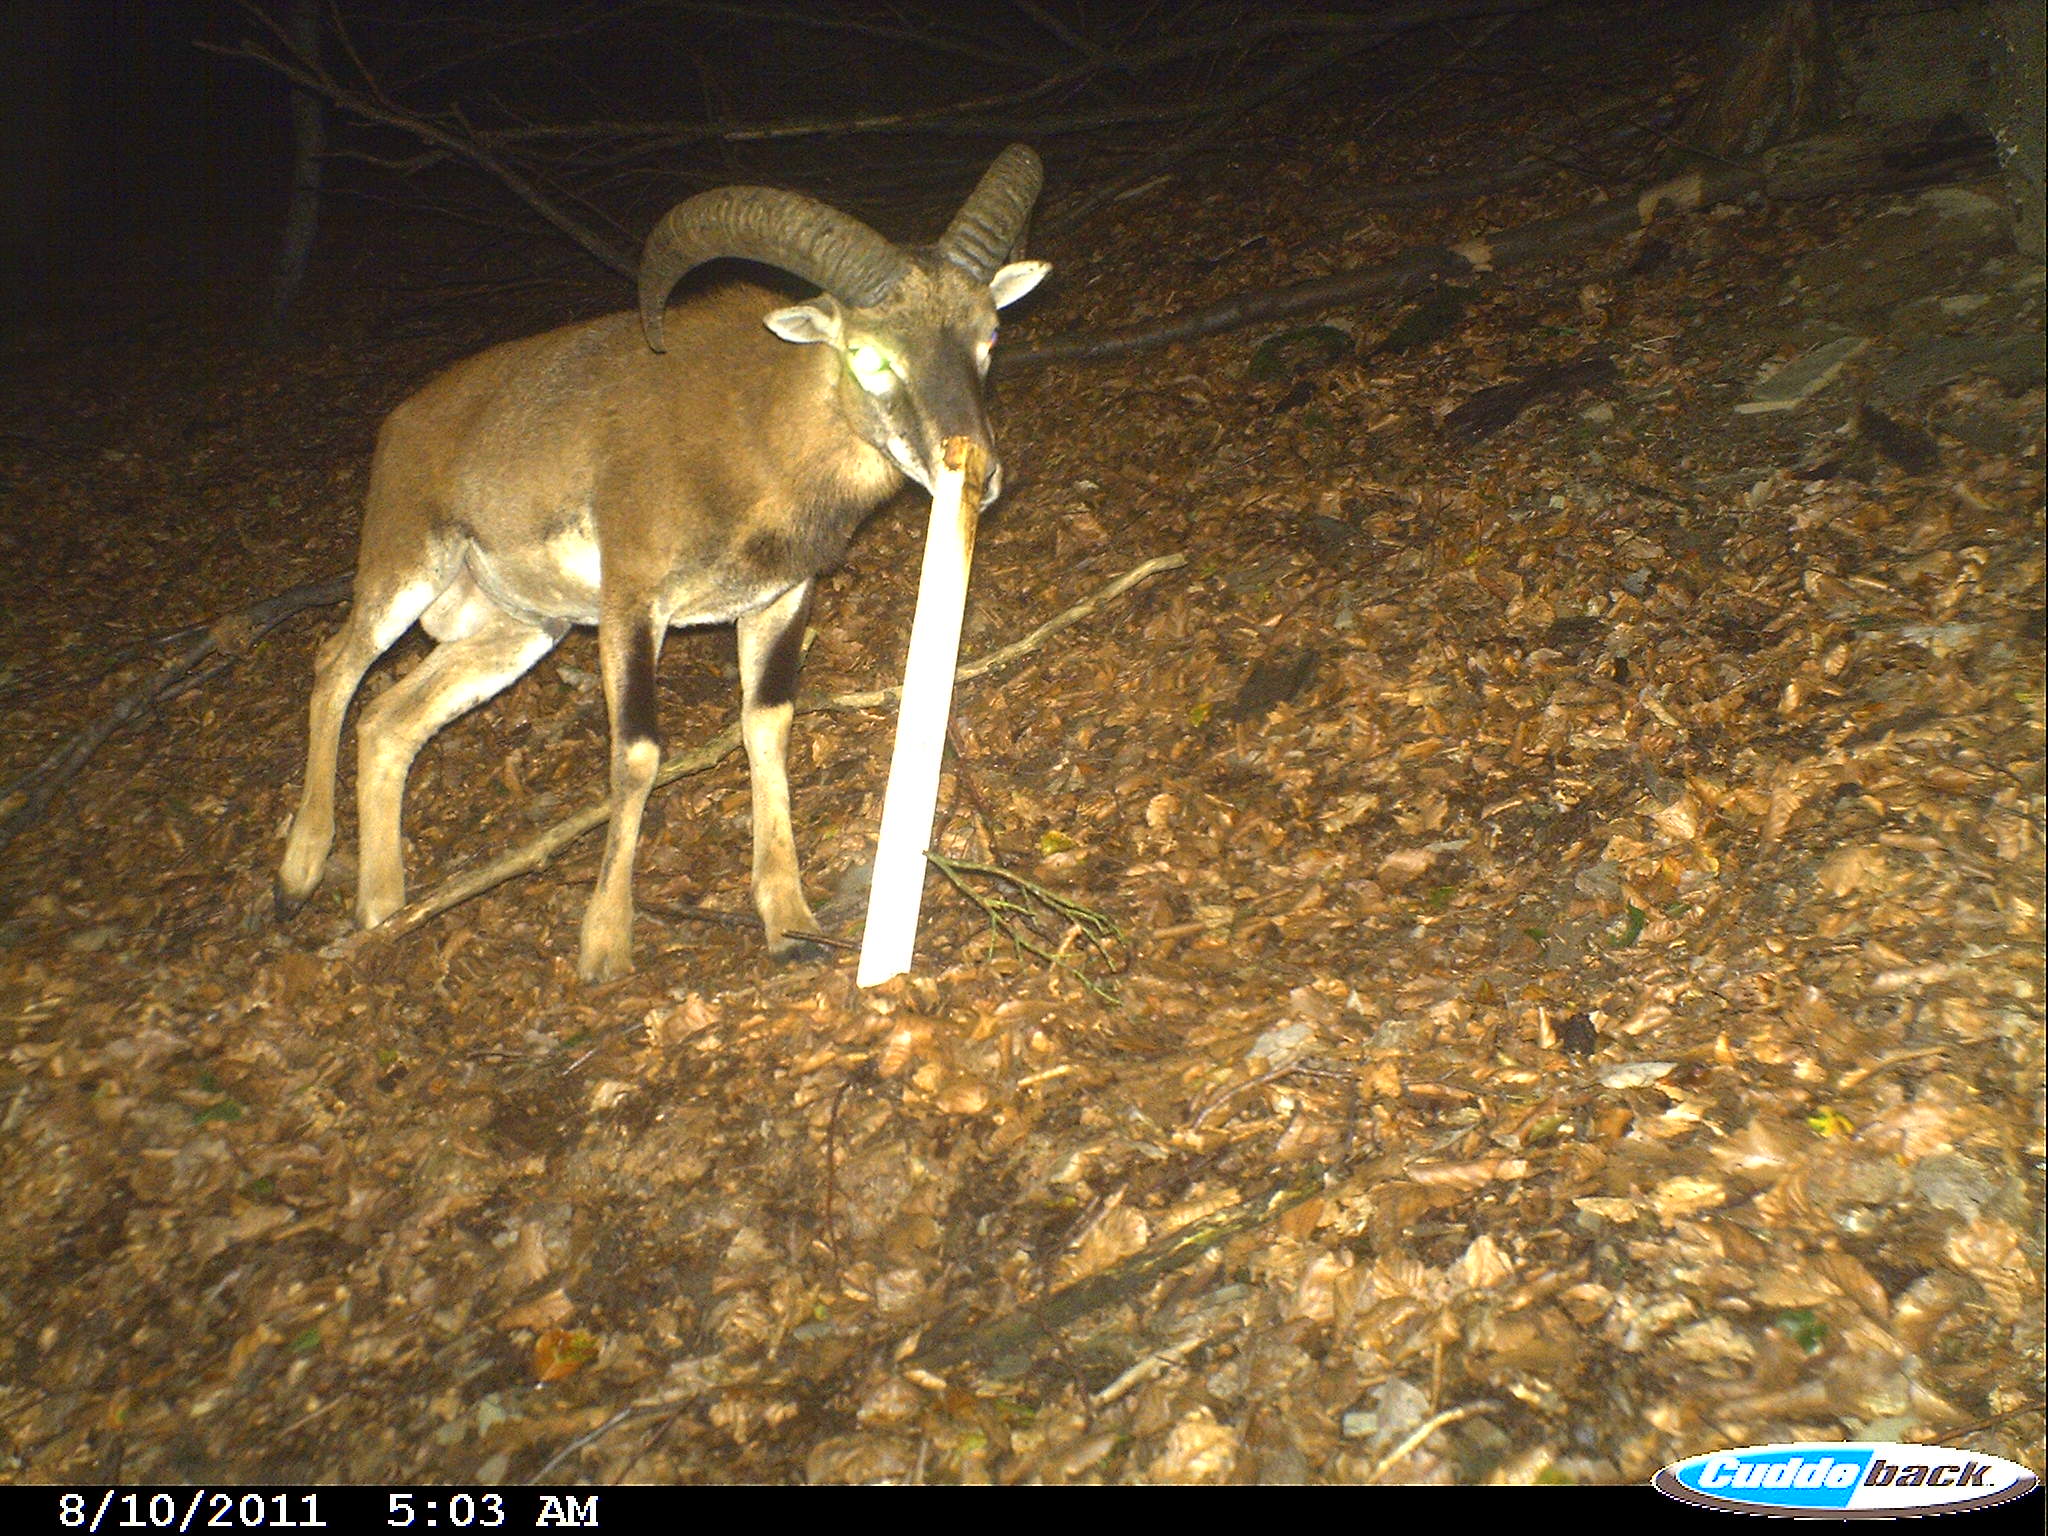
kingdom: Animalia
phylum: Chordata
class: Mammalia
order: Artiodactyla
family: Bovidae
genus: Ovis
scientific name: Ovis ammon
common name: Argali
